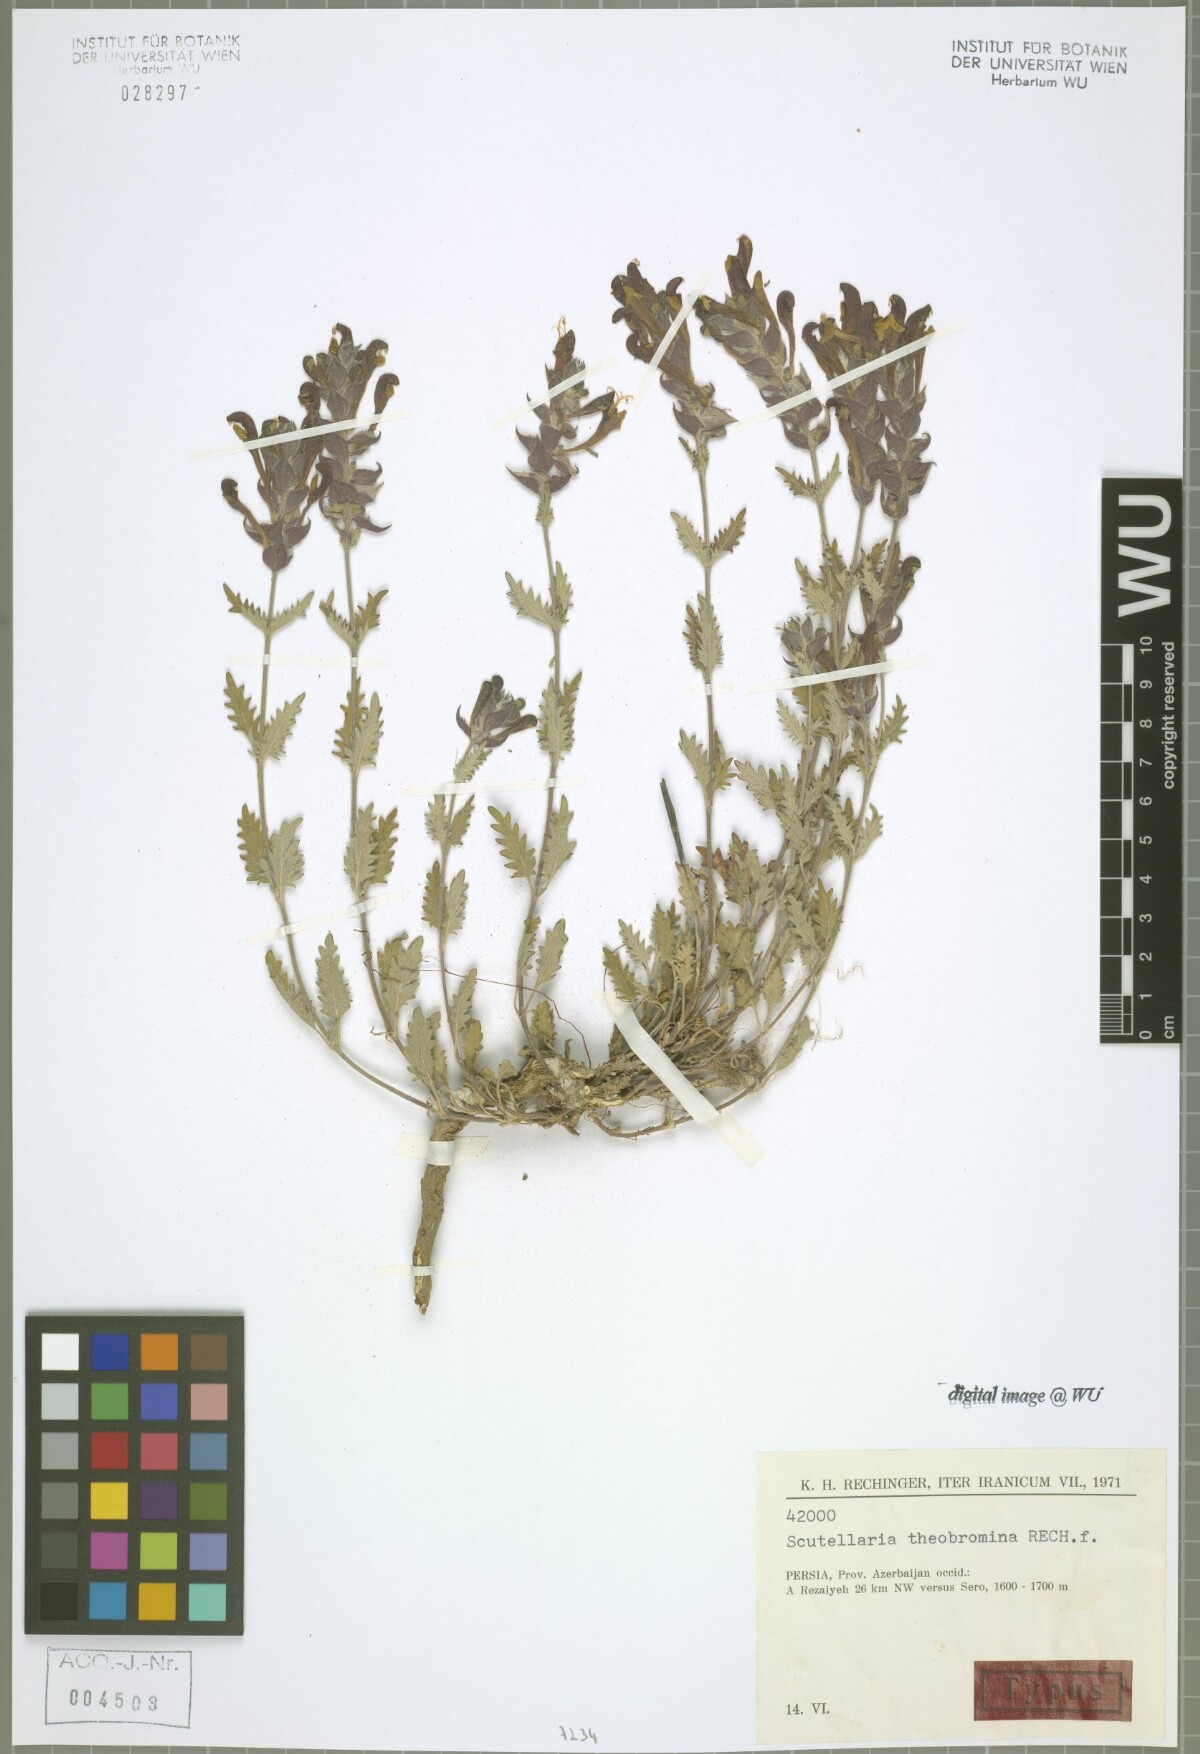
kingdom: Plantae
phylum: Tracheophyta
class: Magnoliopsida
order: Lamiales
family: Lamiaceae
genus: Scutellaria
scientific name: Scutellaria theobromina
